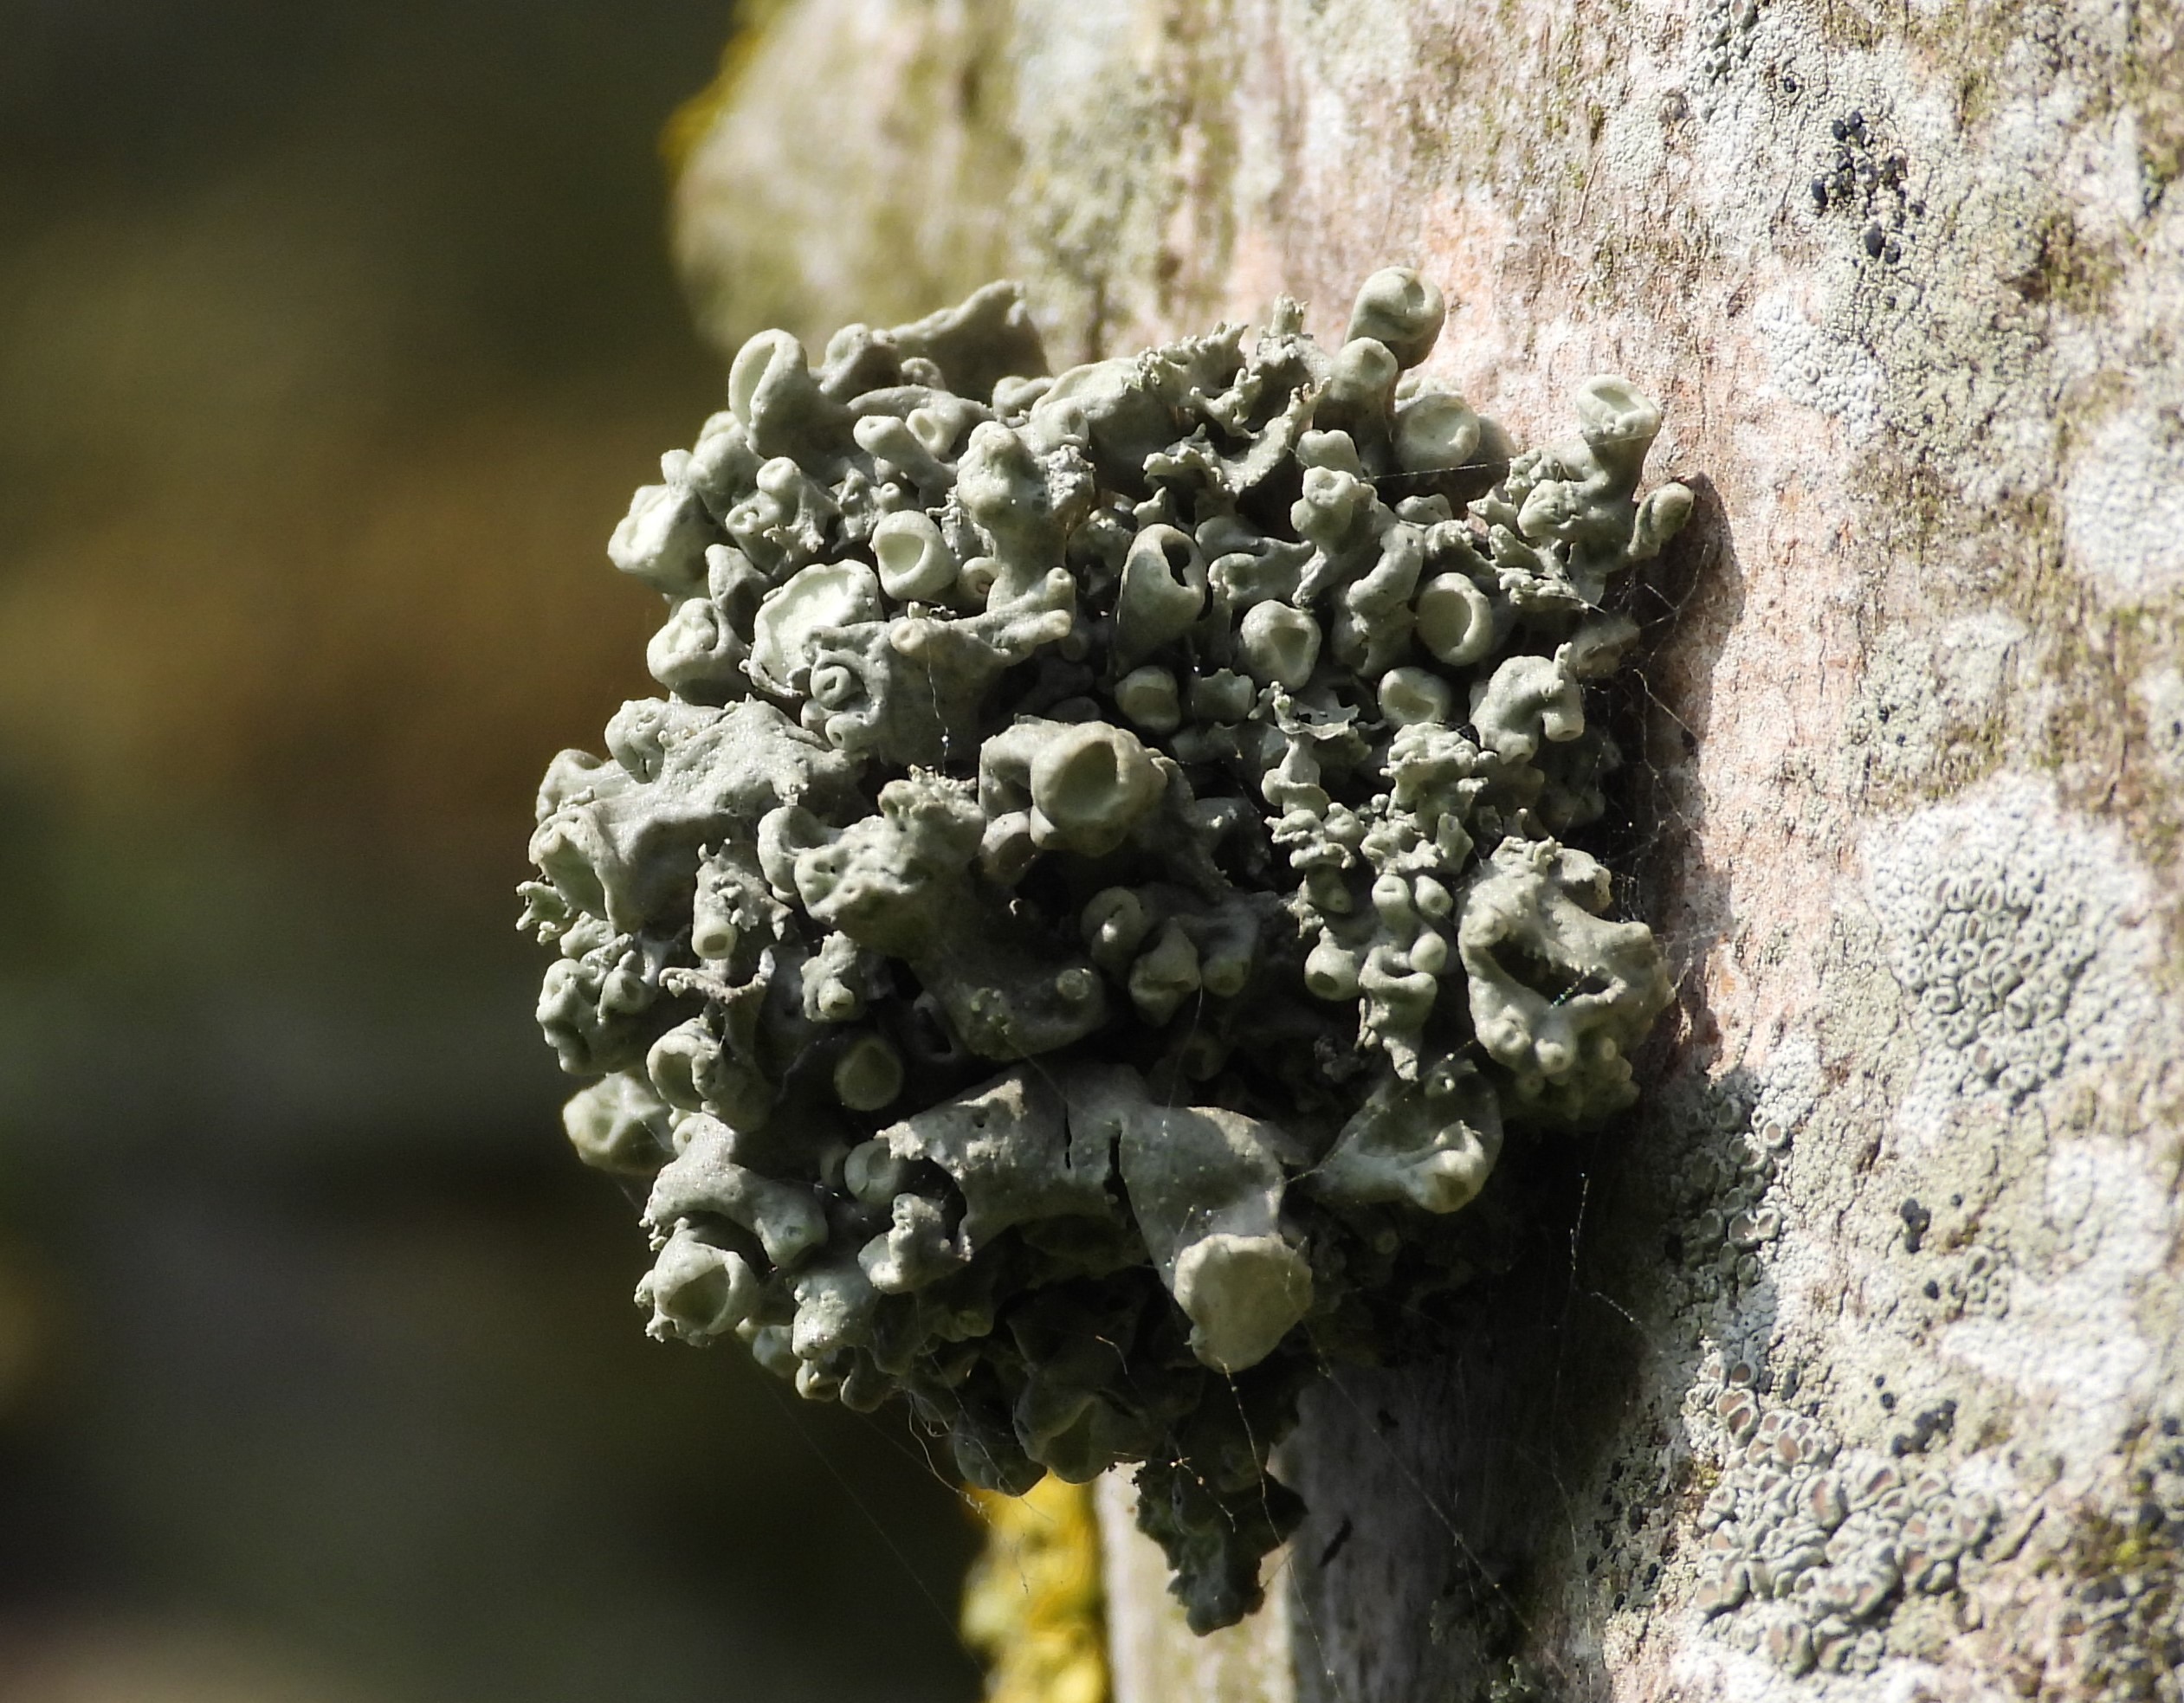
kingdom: Fungi
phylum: Ascomycota
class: Lecanoromycetes
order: Lecanorales
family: Ramalinaceae
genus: Ramalina
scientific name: Ramalina fastigiata
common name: Tue-grenlav
